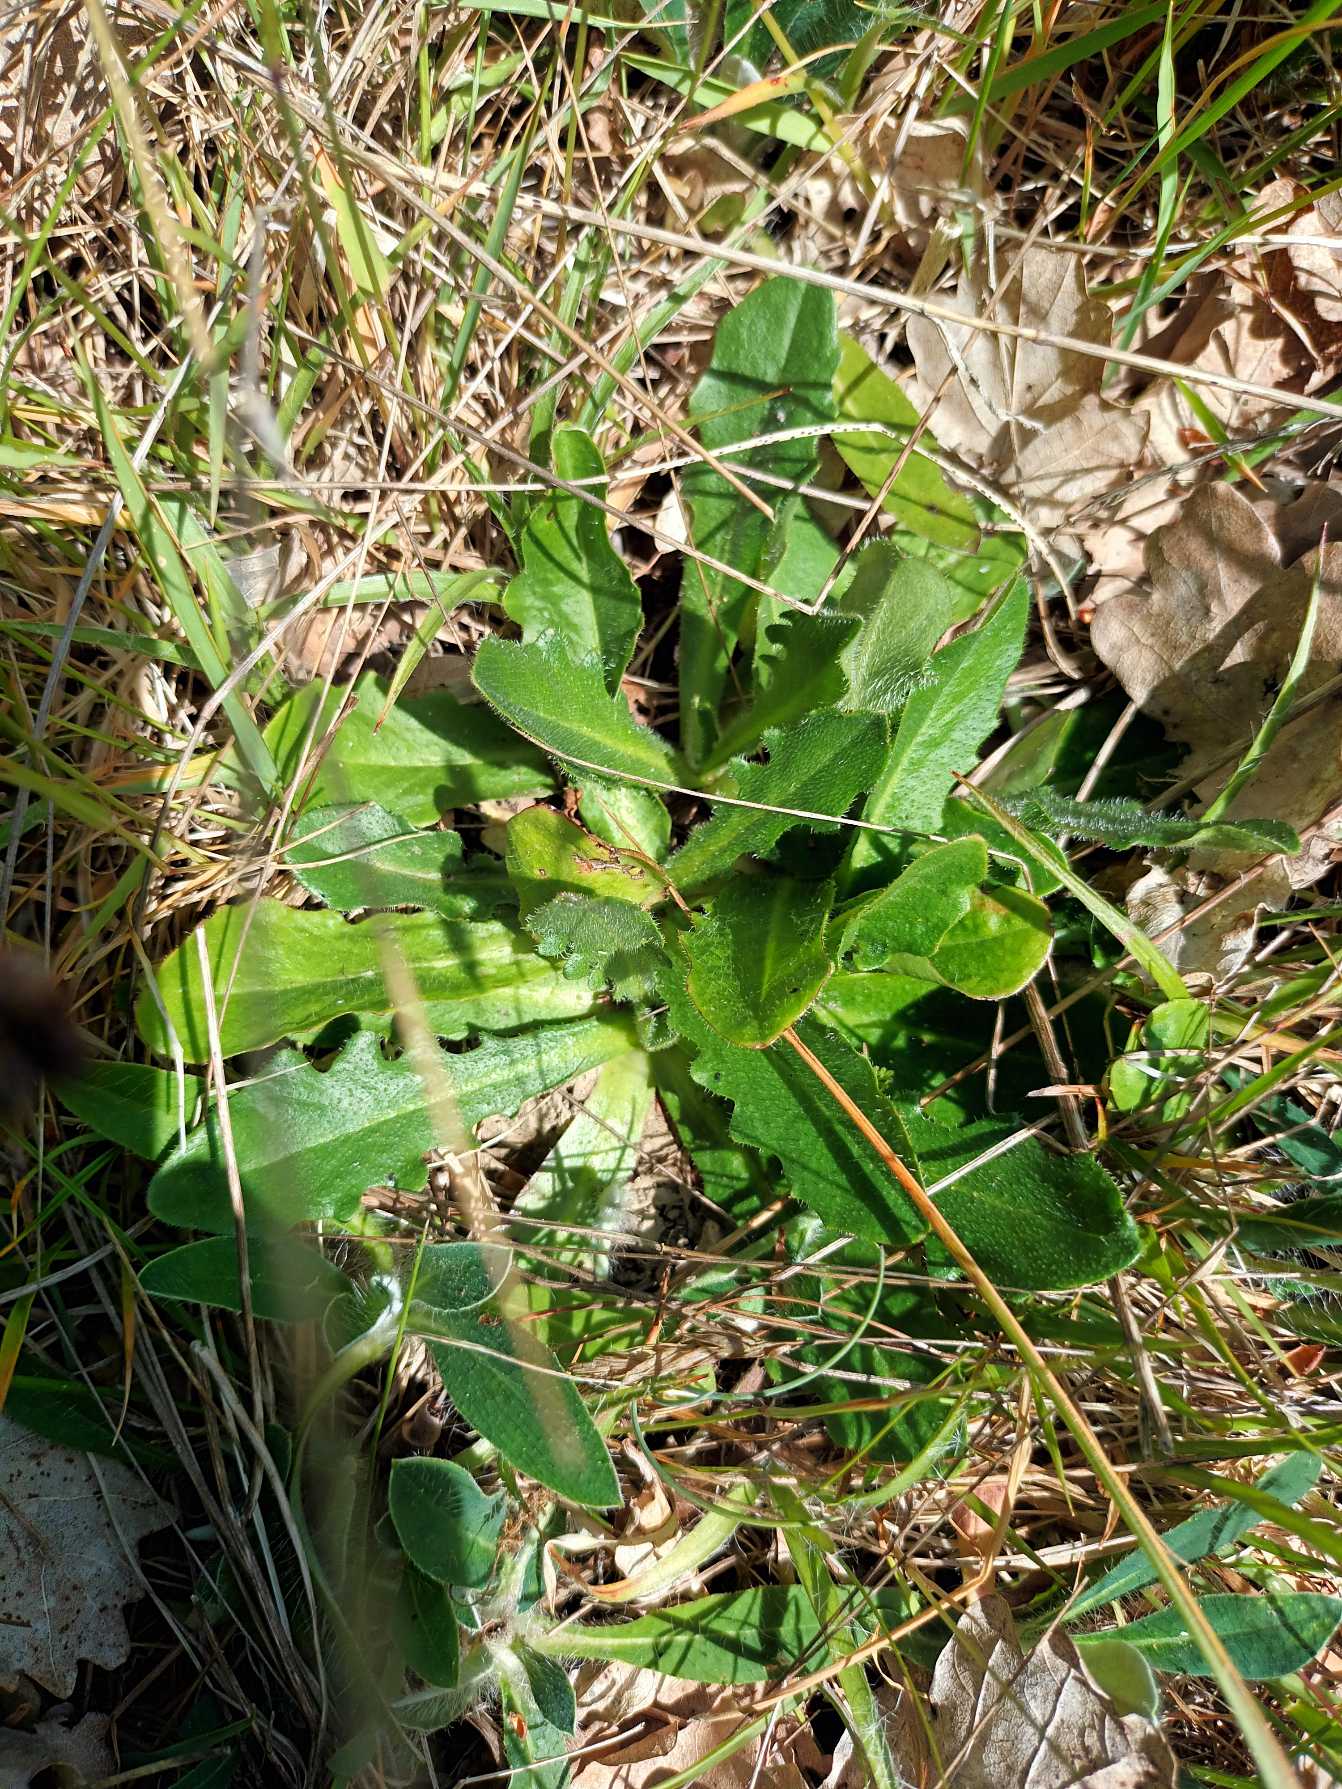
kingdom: Plantae
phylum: Tracheophyta
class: Magnoliopsida
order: Asterales
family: Asteraceae
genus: Hypochaeris
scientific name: Hypochaeris radicata
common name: Almindelig kongepen
